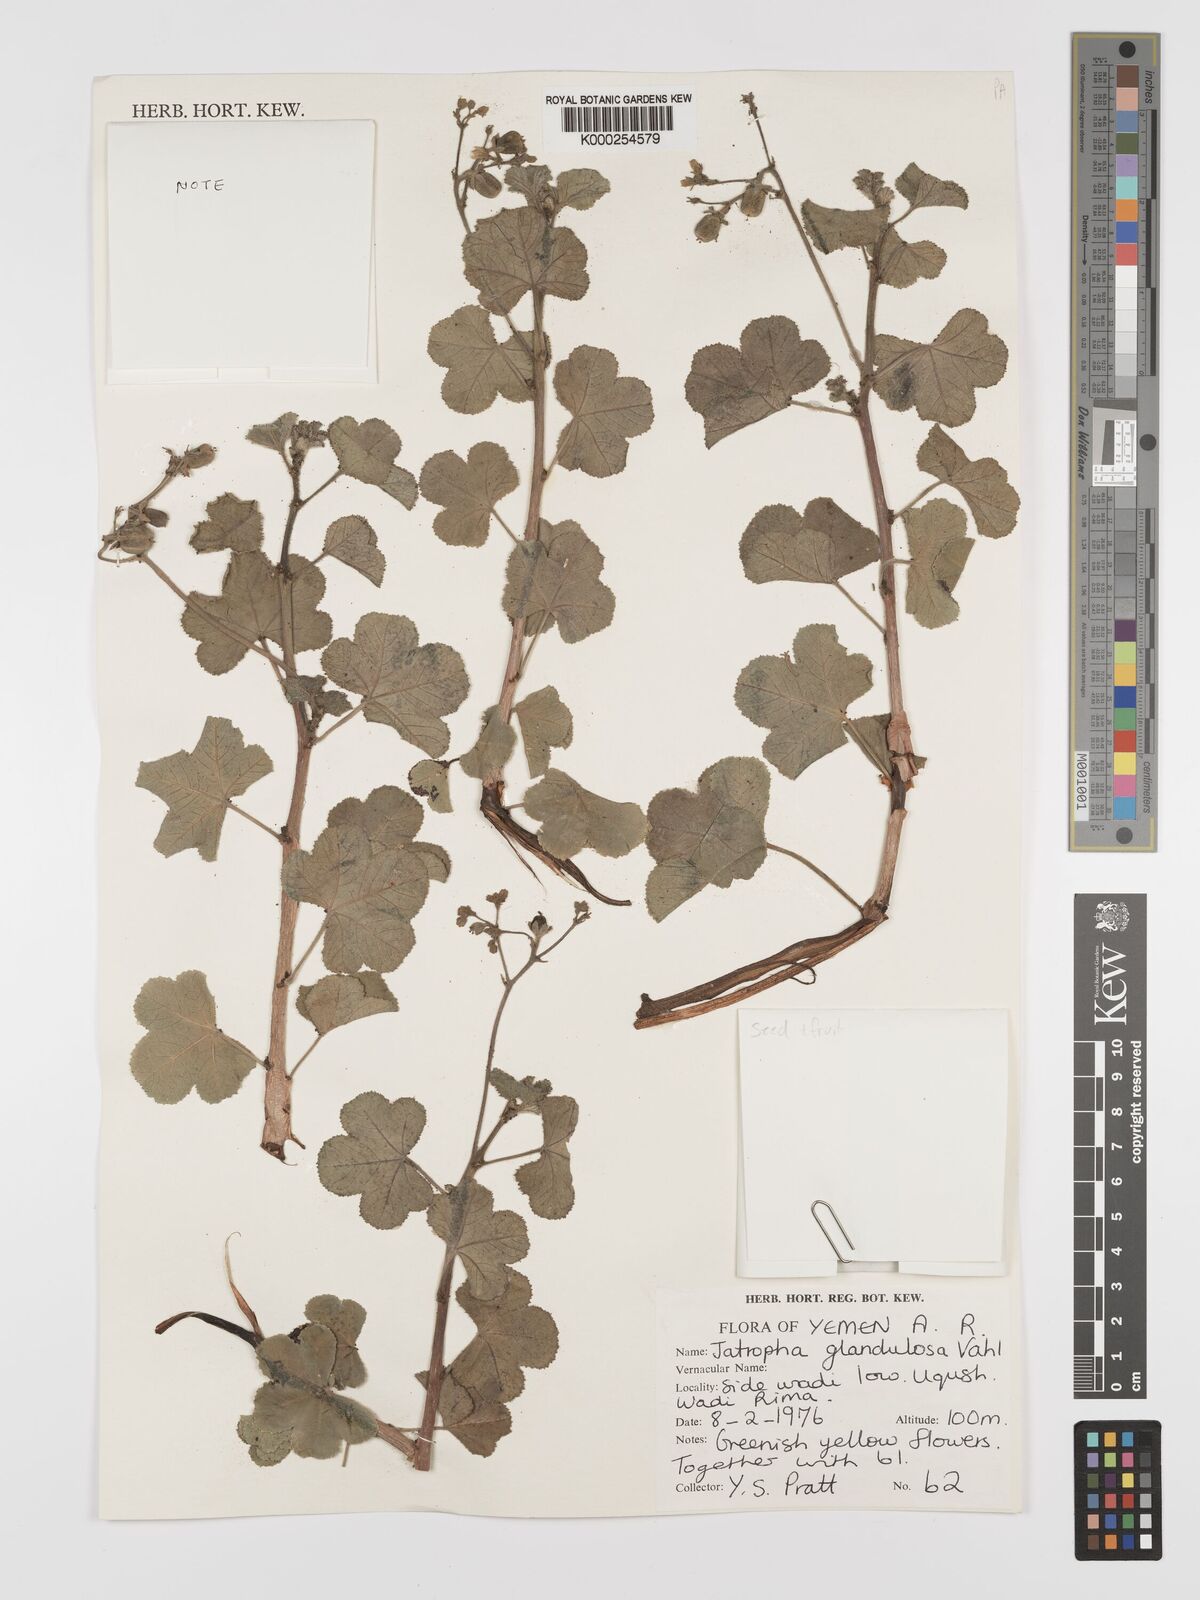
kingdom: Plantae
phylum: Tracheophyta
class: Magnoliopsida
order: Malpighiales
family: Euphorbiaceae
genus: Jatropha
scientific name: Jatropha pelargoniifolia
